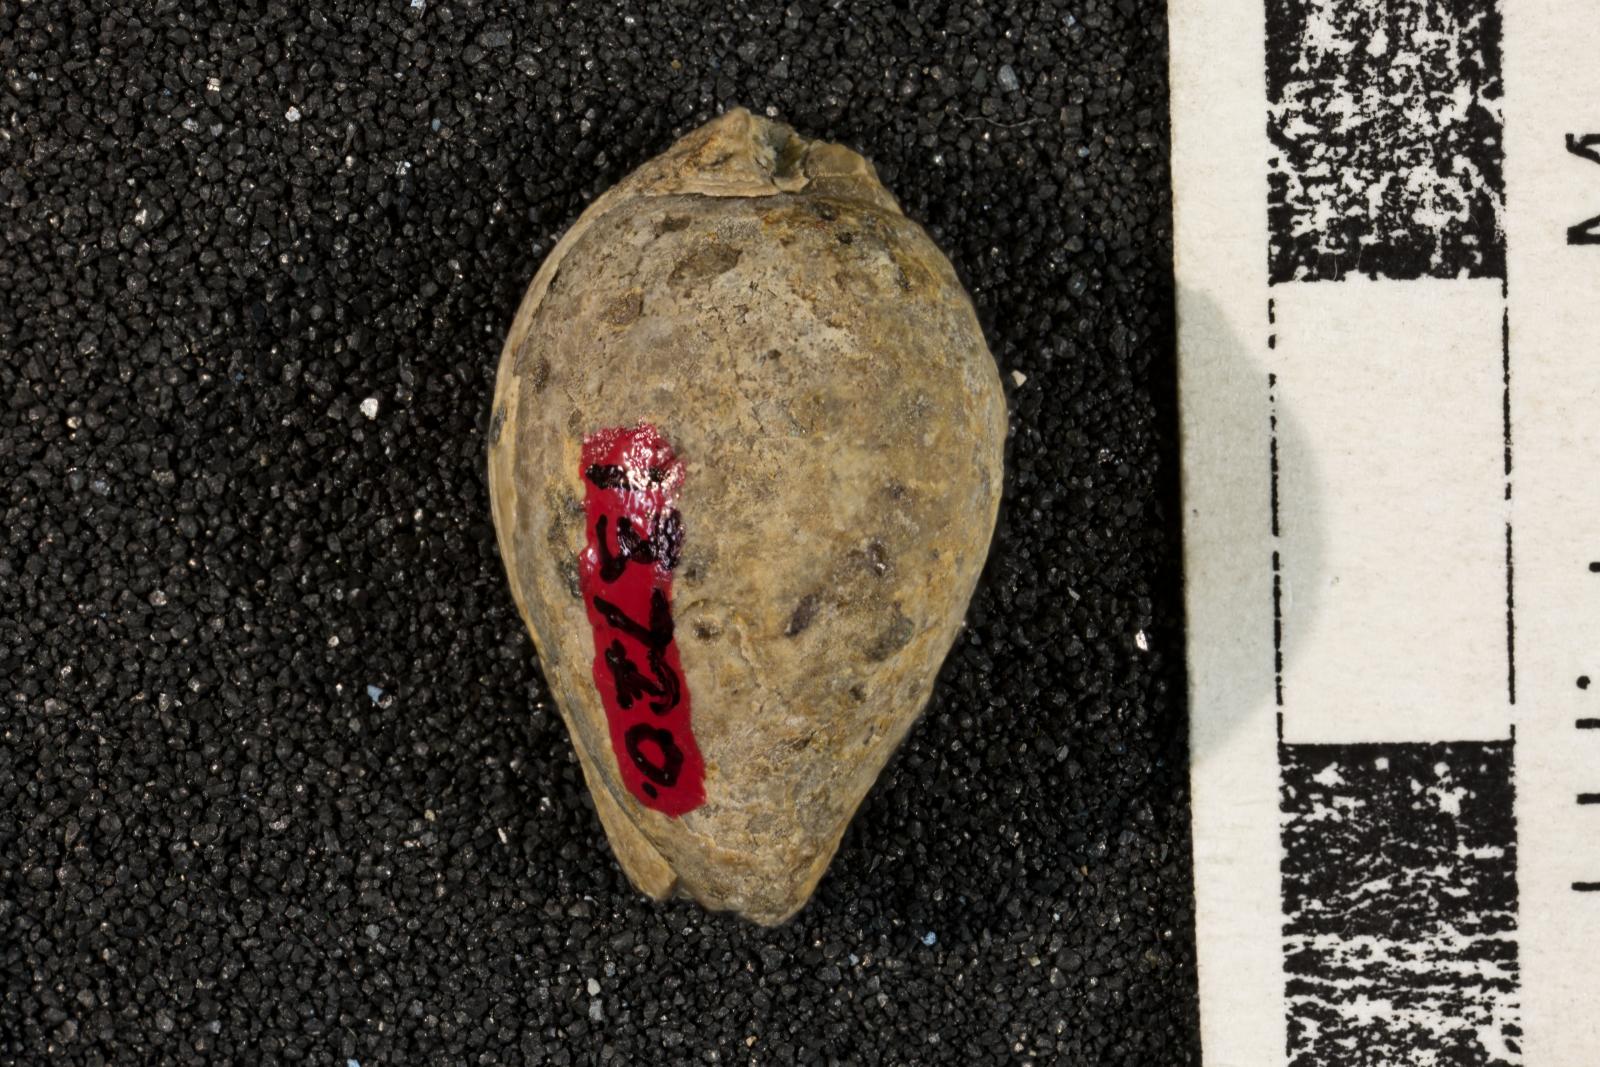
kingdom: Animalia
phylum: Mollusca
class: Gastropoda
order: Littorinimorpha
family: Cypraeidae
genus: Protocypraea
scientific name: Protocypraea
